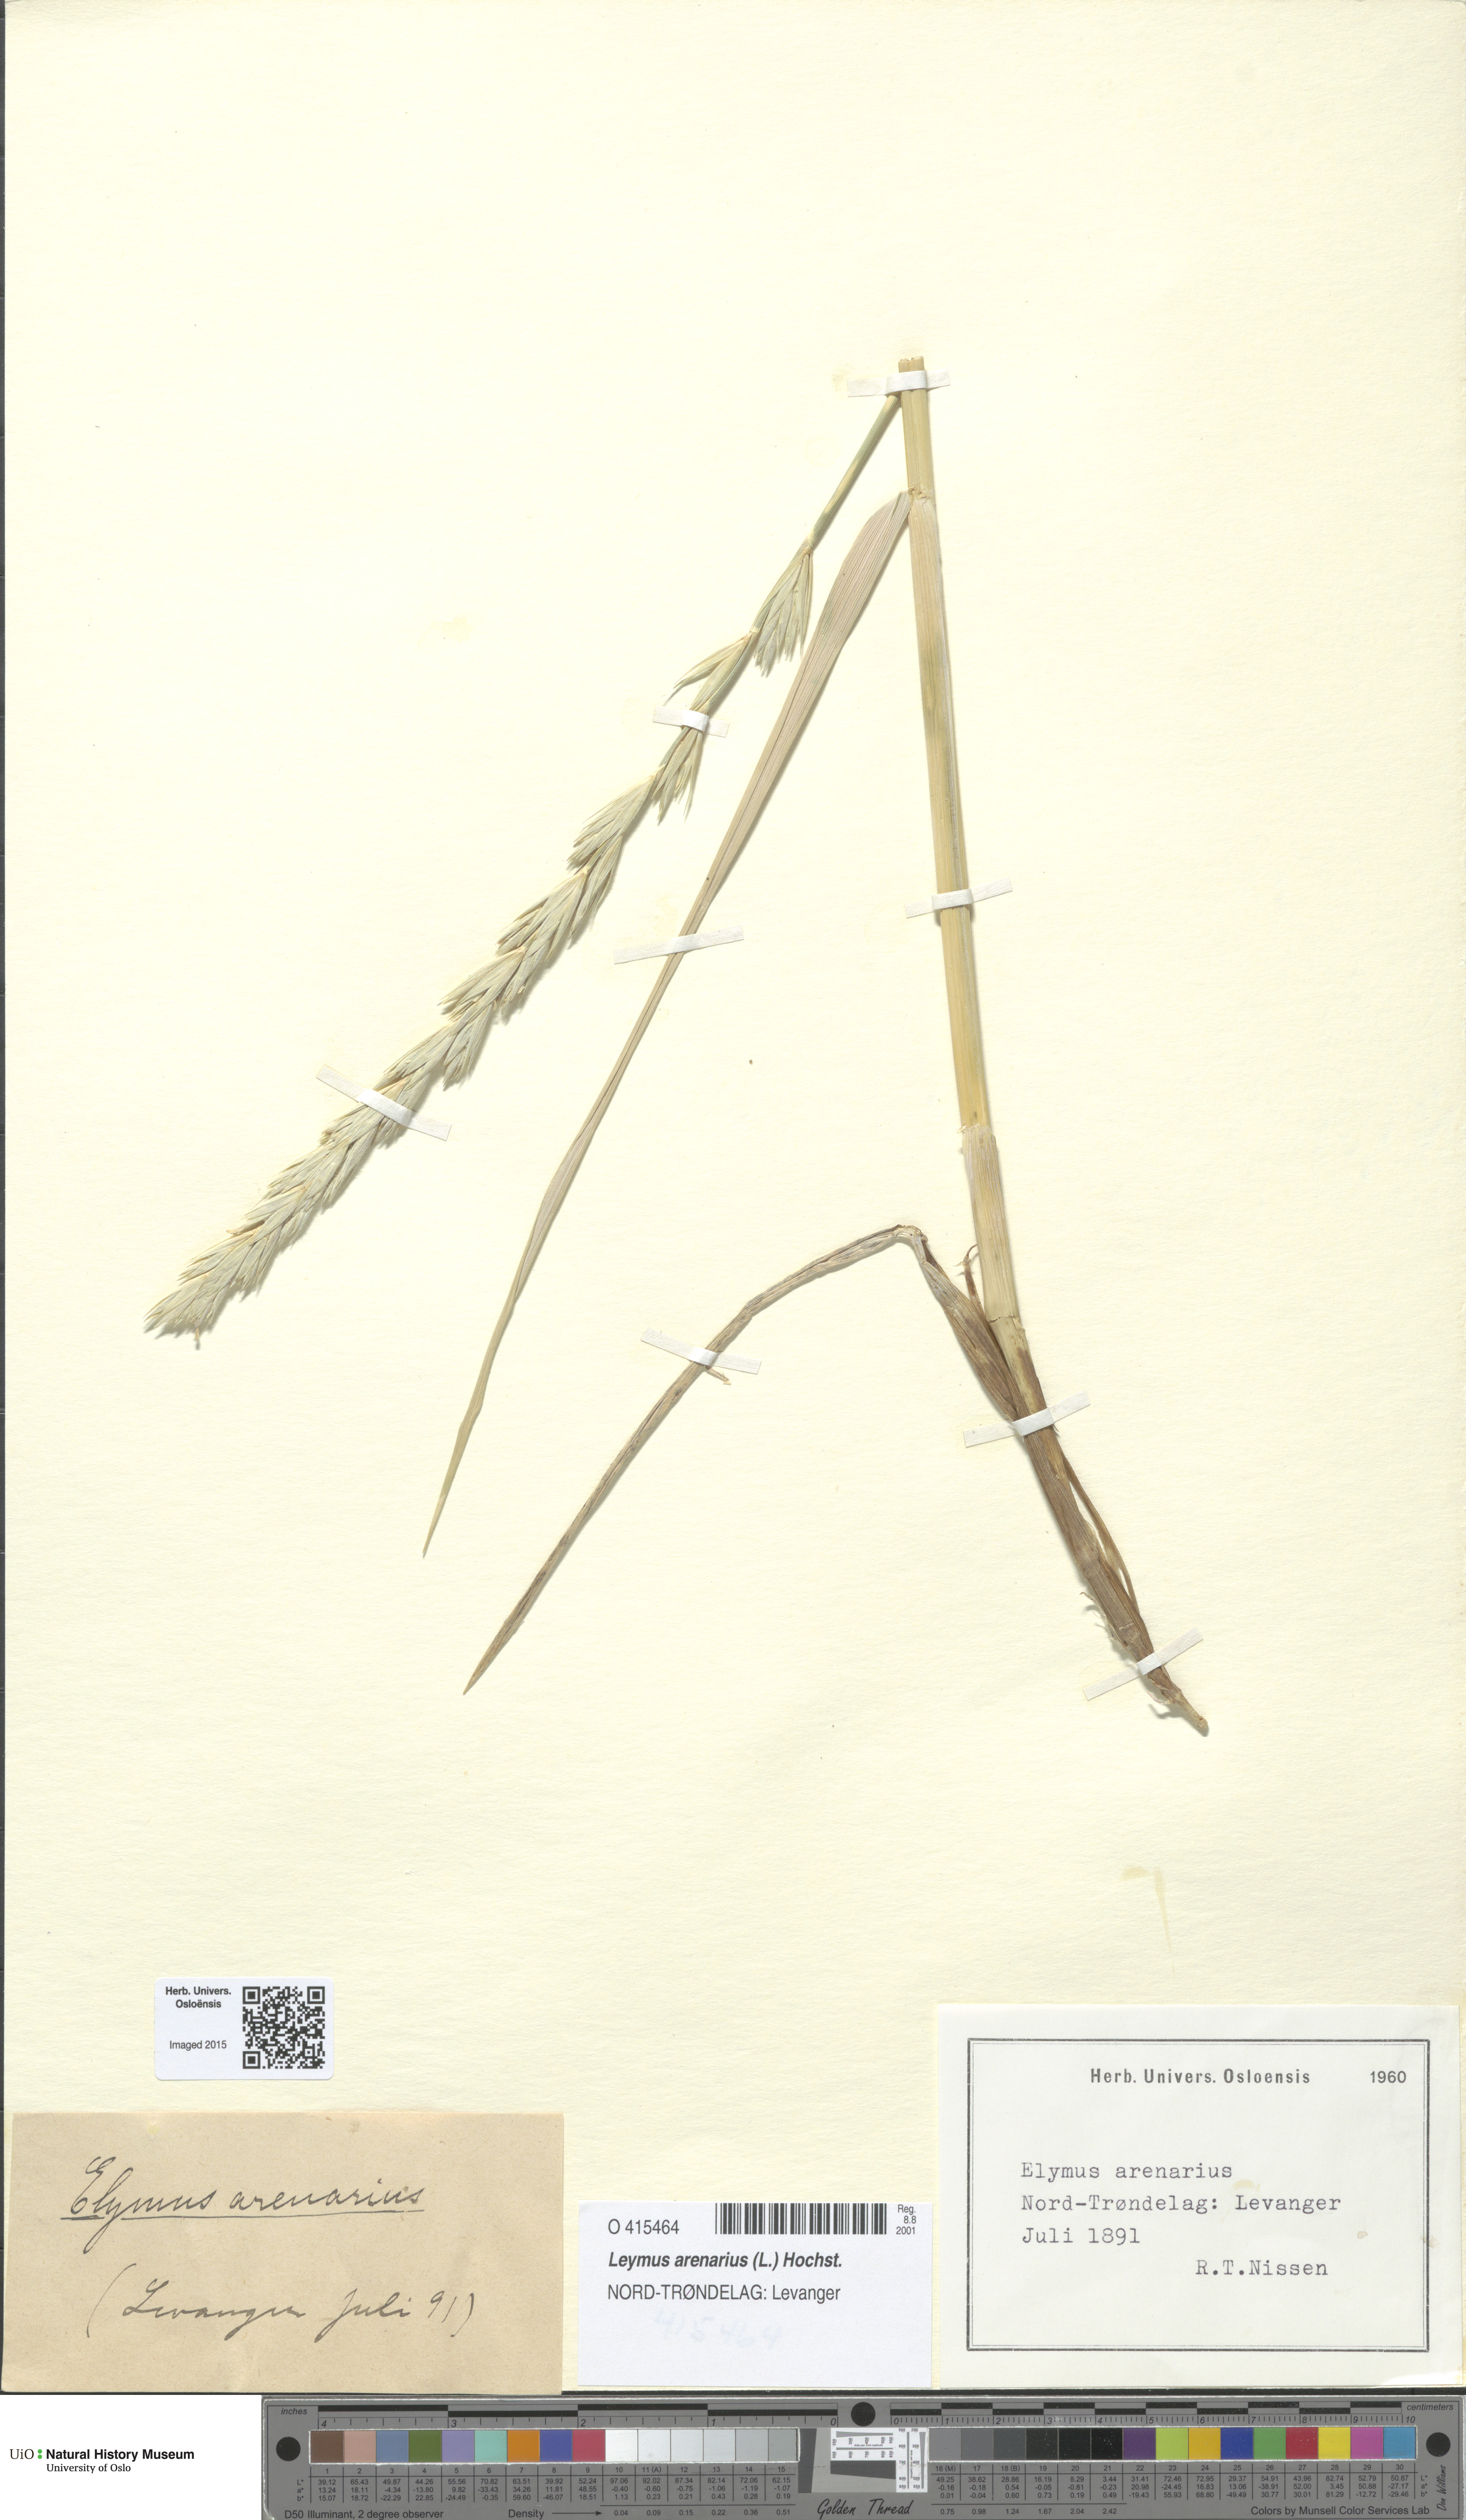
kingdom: Plantae
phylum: Tracheophyta
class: Liliopsida
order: Poales
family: Poaceae
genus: Leymus
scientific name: Leymus arenarius
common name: Lyme-grass
